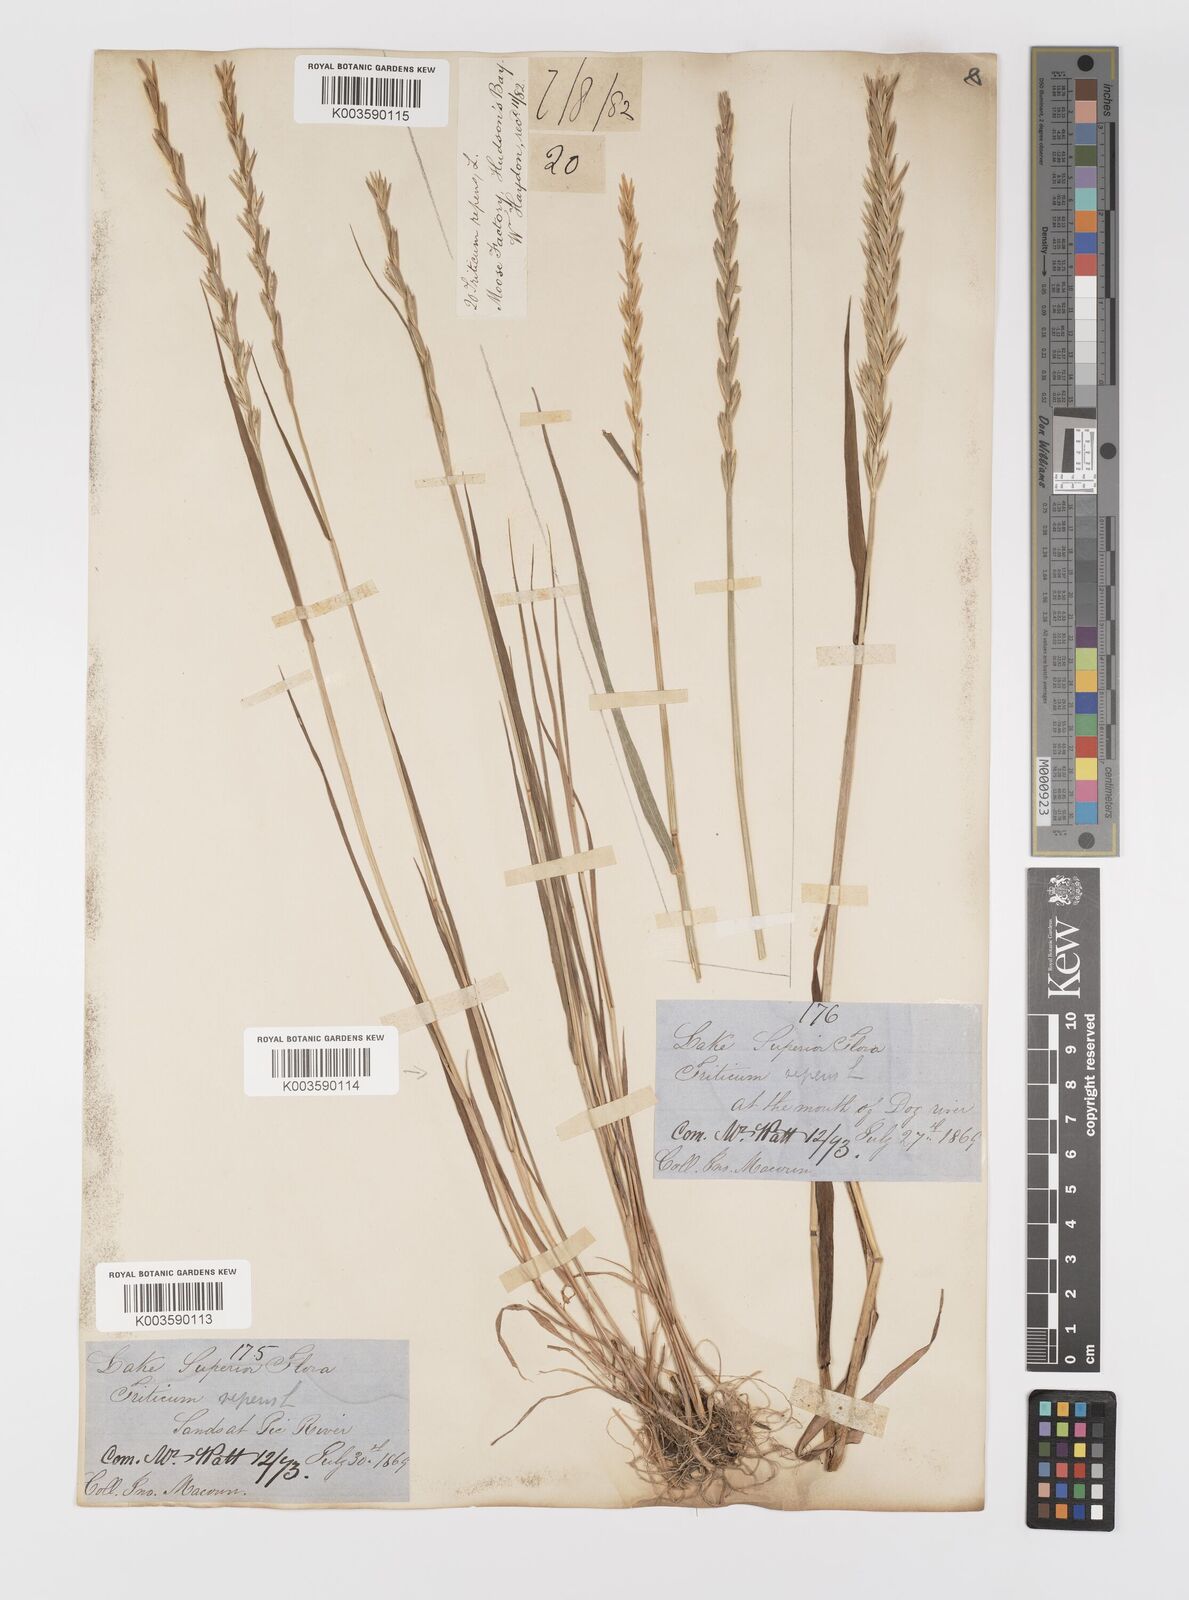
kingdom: Plantae
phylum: Tracheophyta
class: Liliopsida
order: Poales
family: Poaceae
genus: Elymus
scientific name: Elymus repens
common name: Quackgrass
